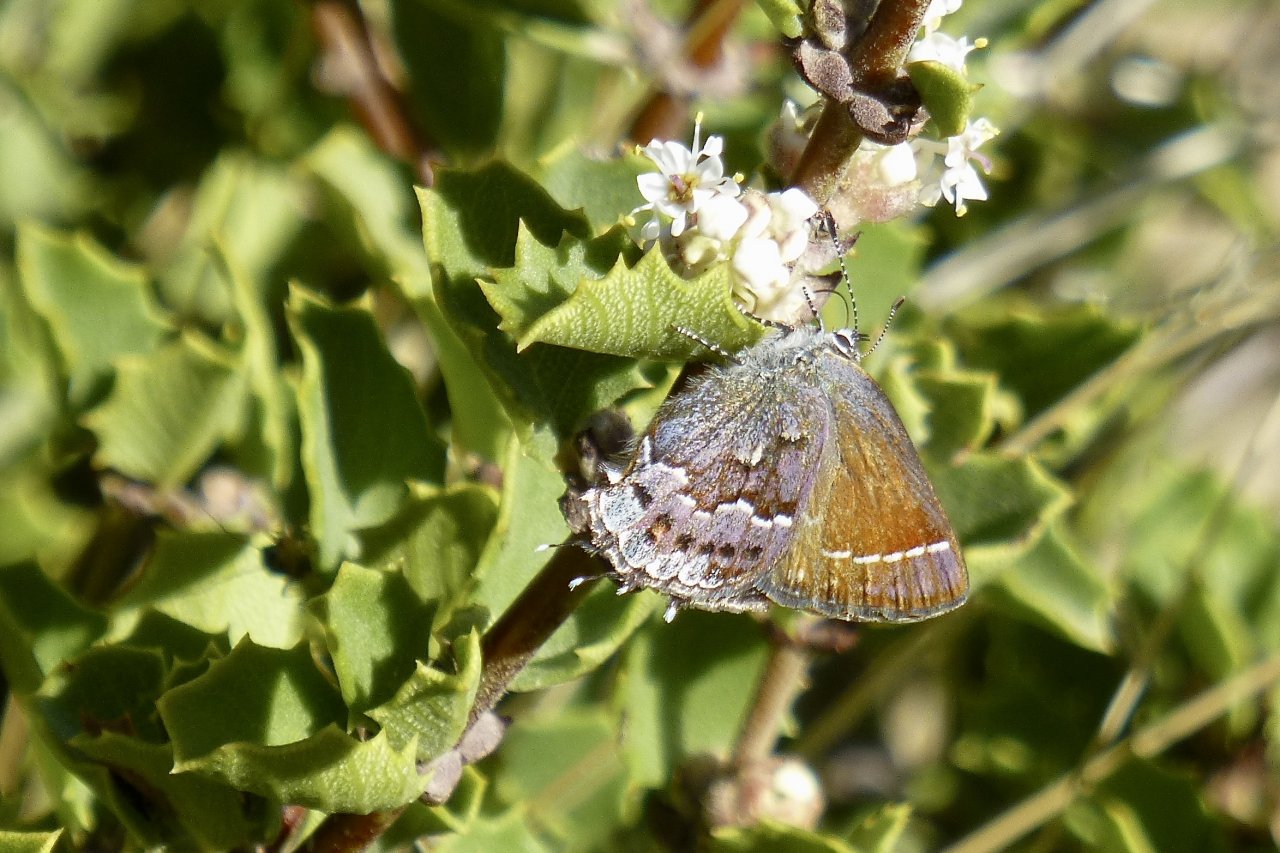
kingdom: Animalia
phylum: Arthropoda
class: Insecta
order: Lepidoptera
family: Lycaenidae
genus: Callophrys
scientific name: Callophrys
